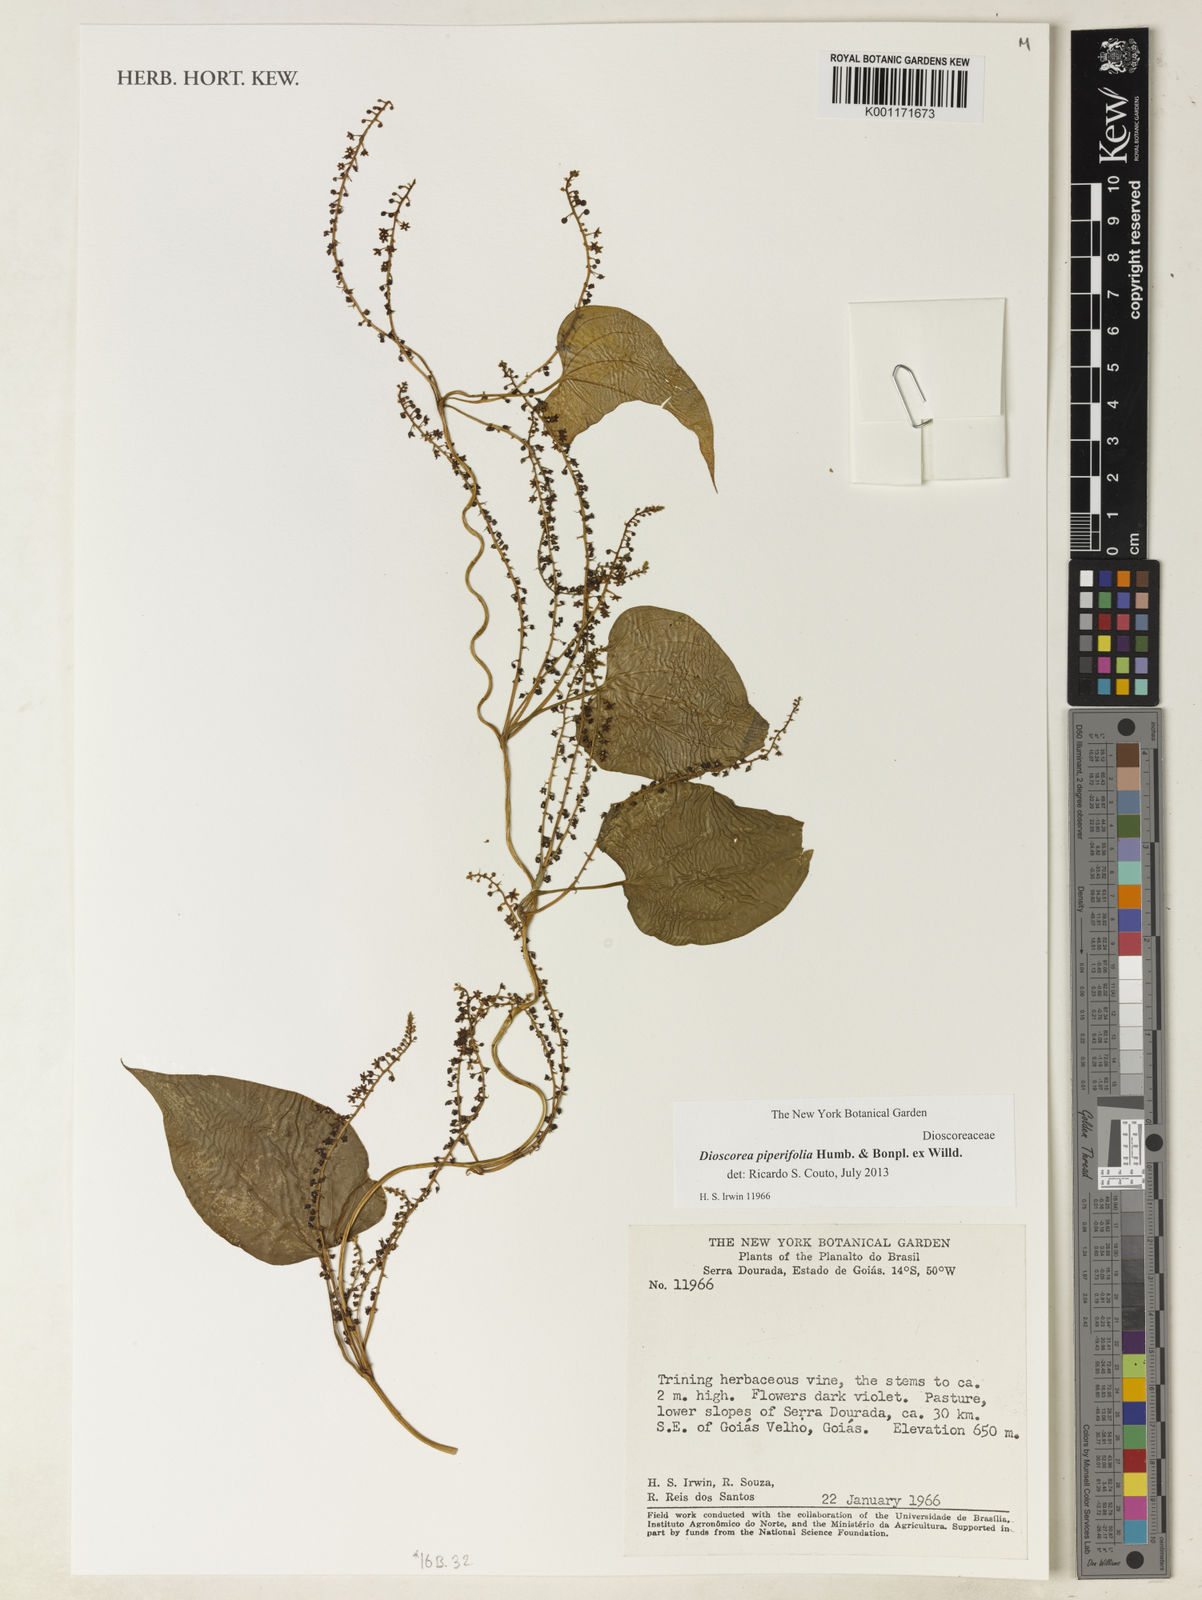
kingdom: Plantae
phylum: Tracheophyta
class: Liliopsida
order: Dioscoreales
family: Dioscoreaceae
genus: Dioscorea
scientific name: Dioscorea piperifolia
